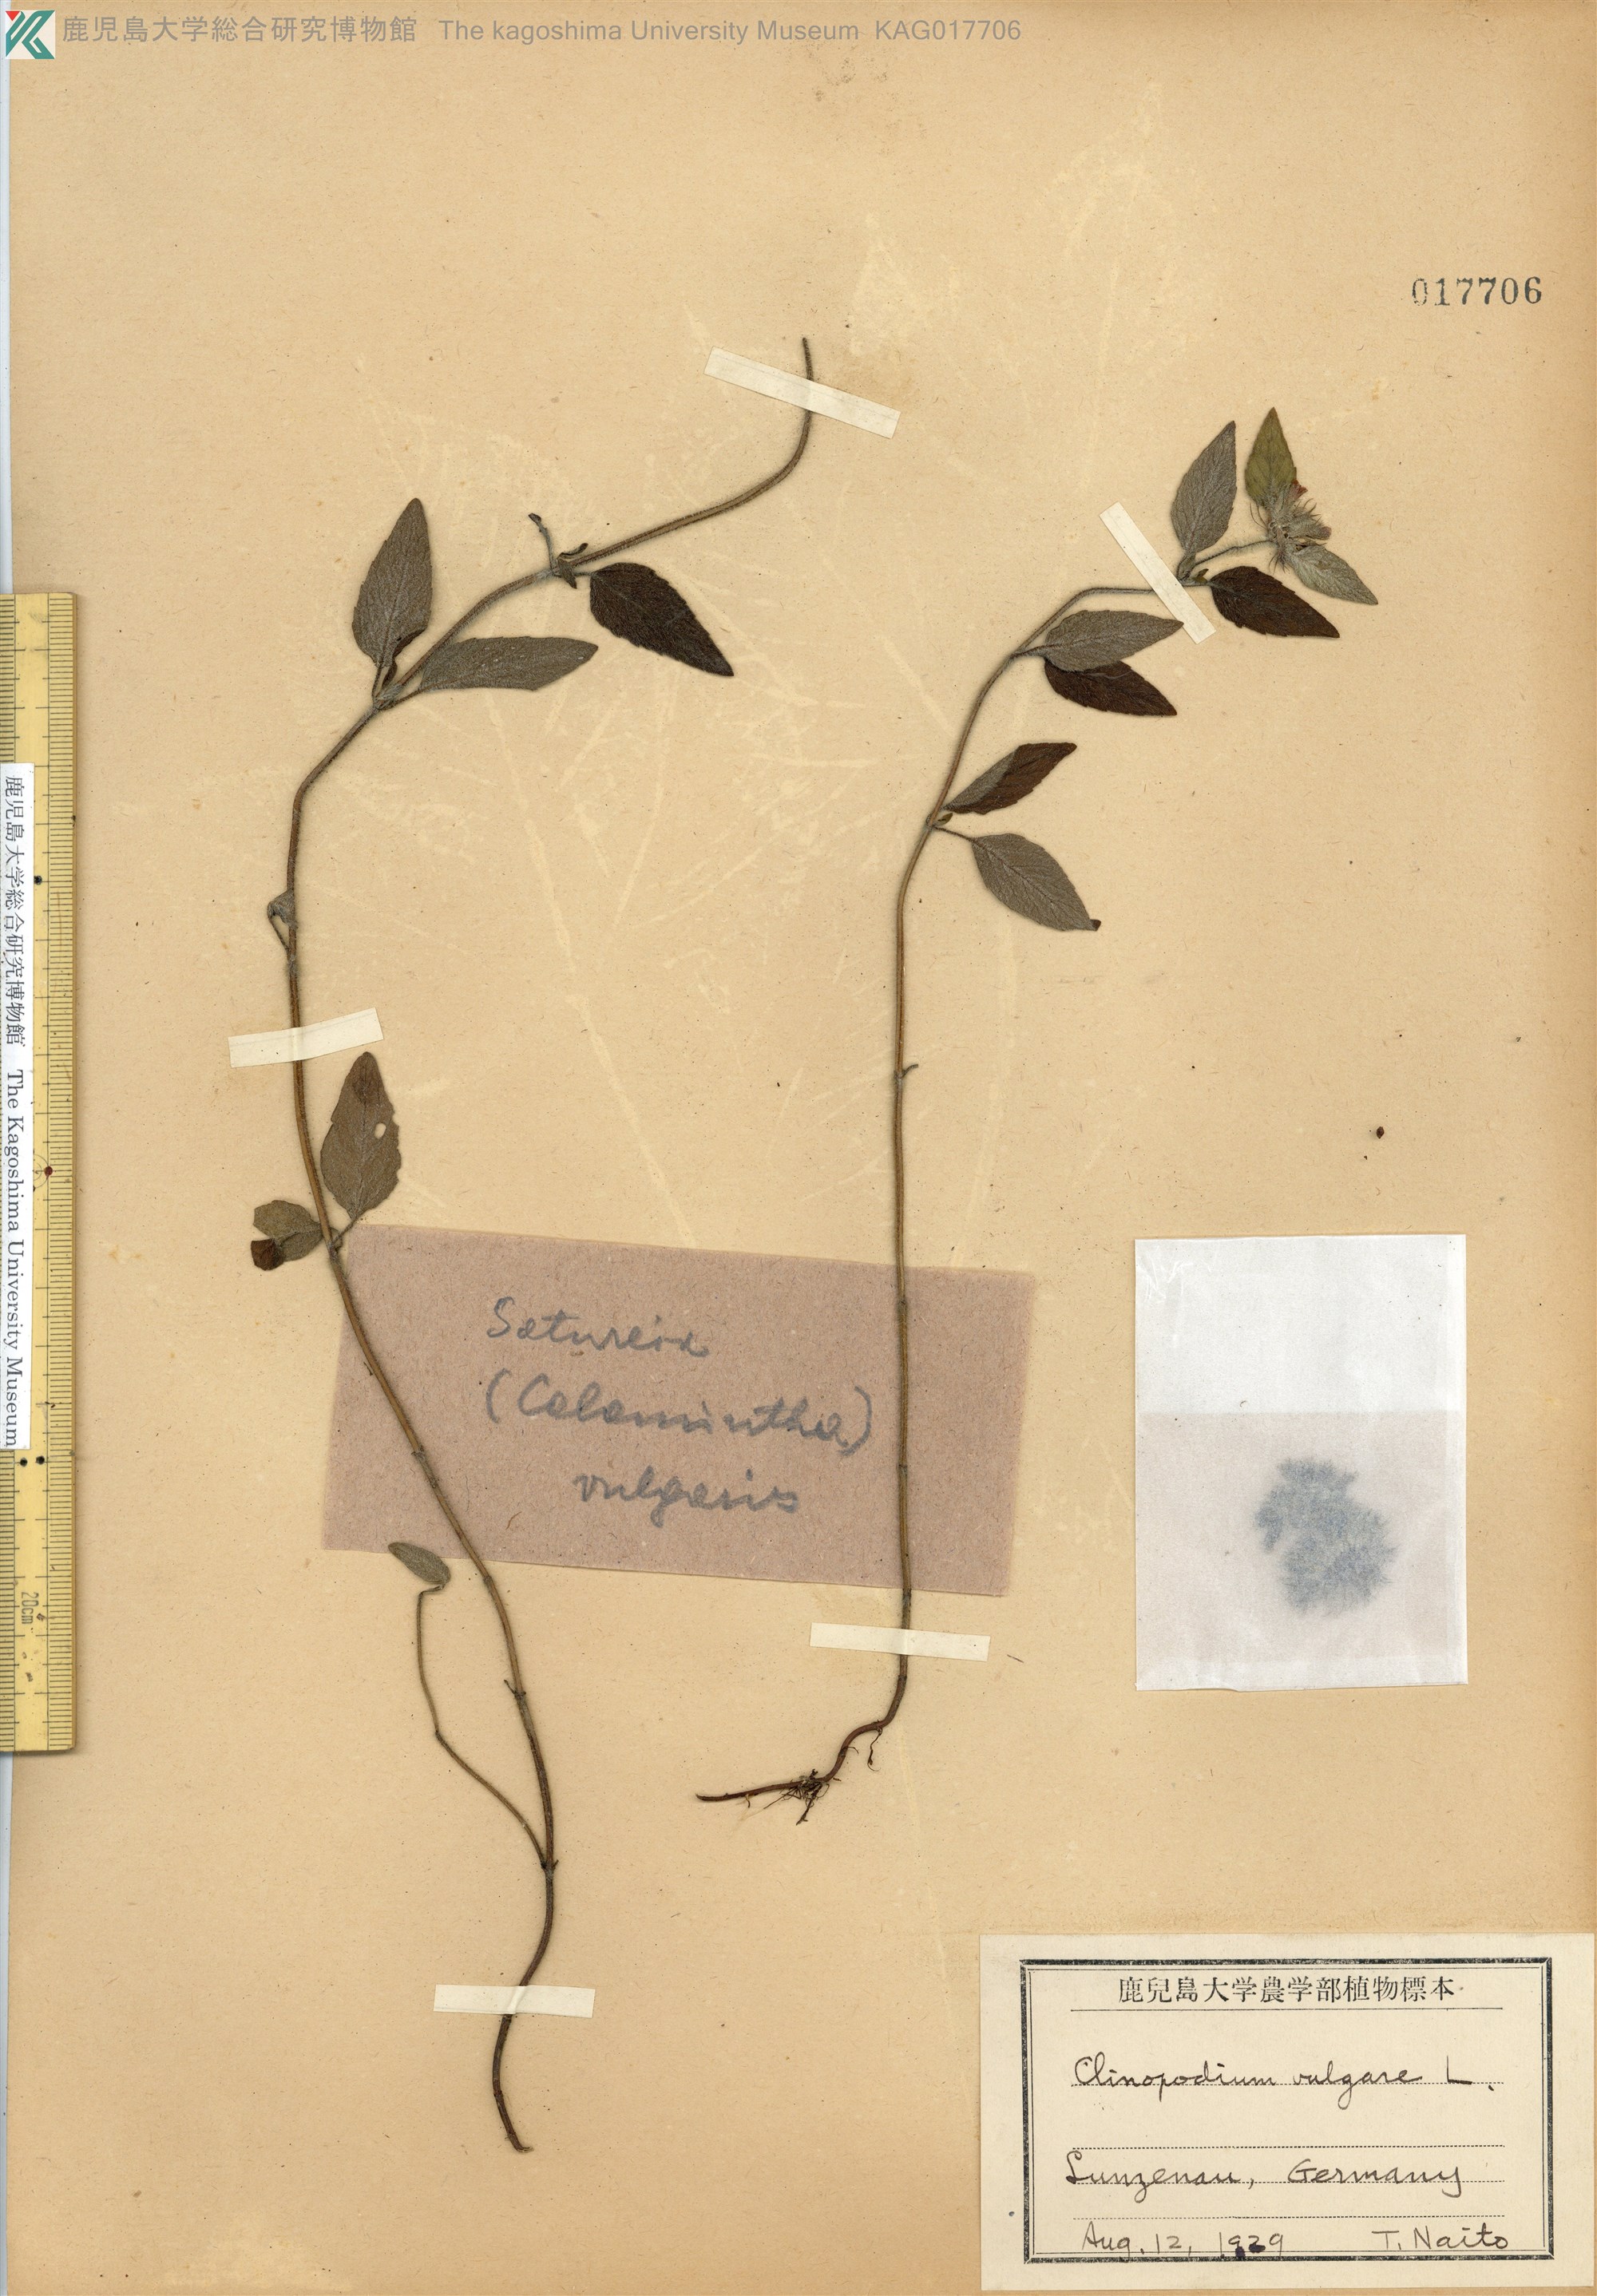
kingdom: Plantae
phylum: Tracheophyta
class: Magnoliopsida
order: Lamiales
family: Lamiaceae
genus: Clinopodium
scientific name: Clinopodium vulgare
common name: Wild basil
